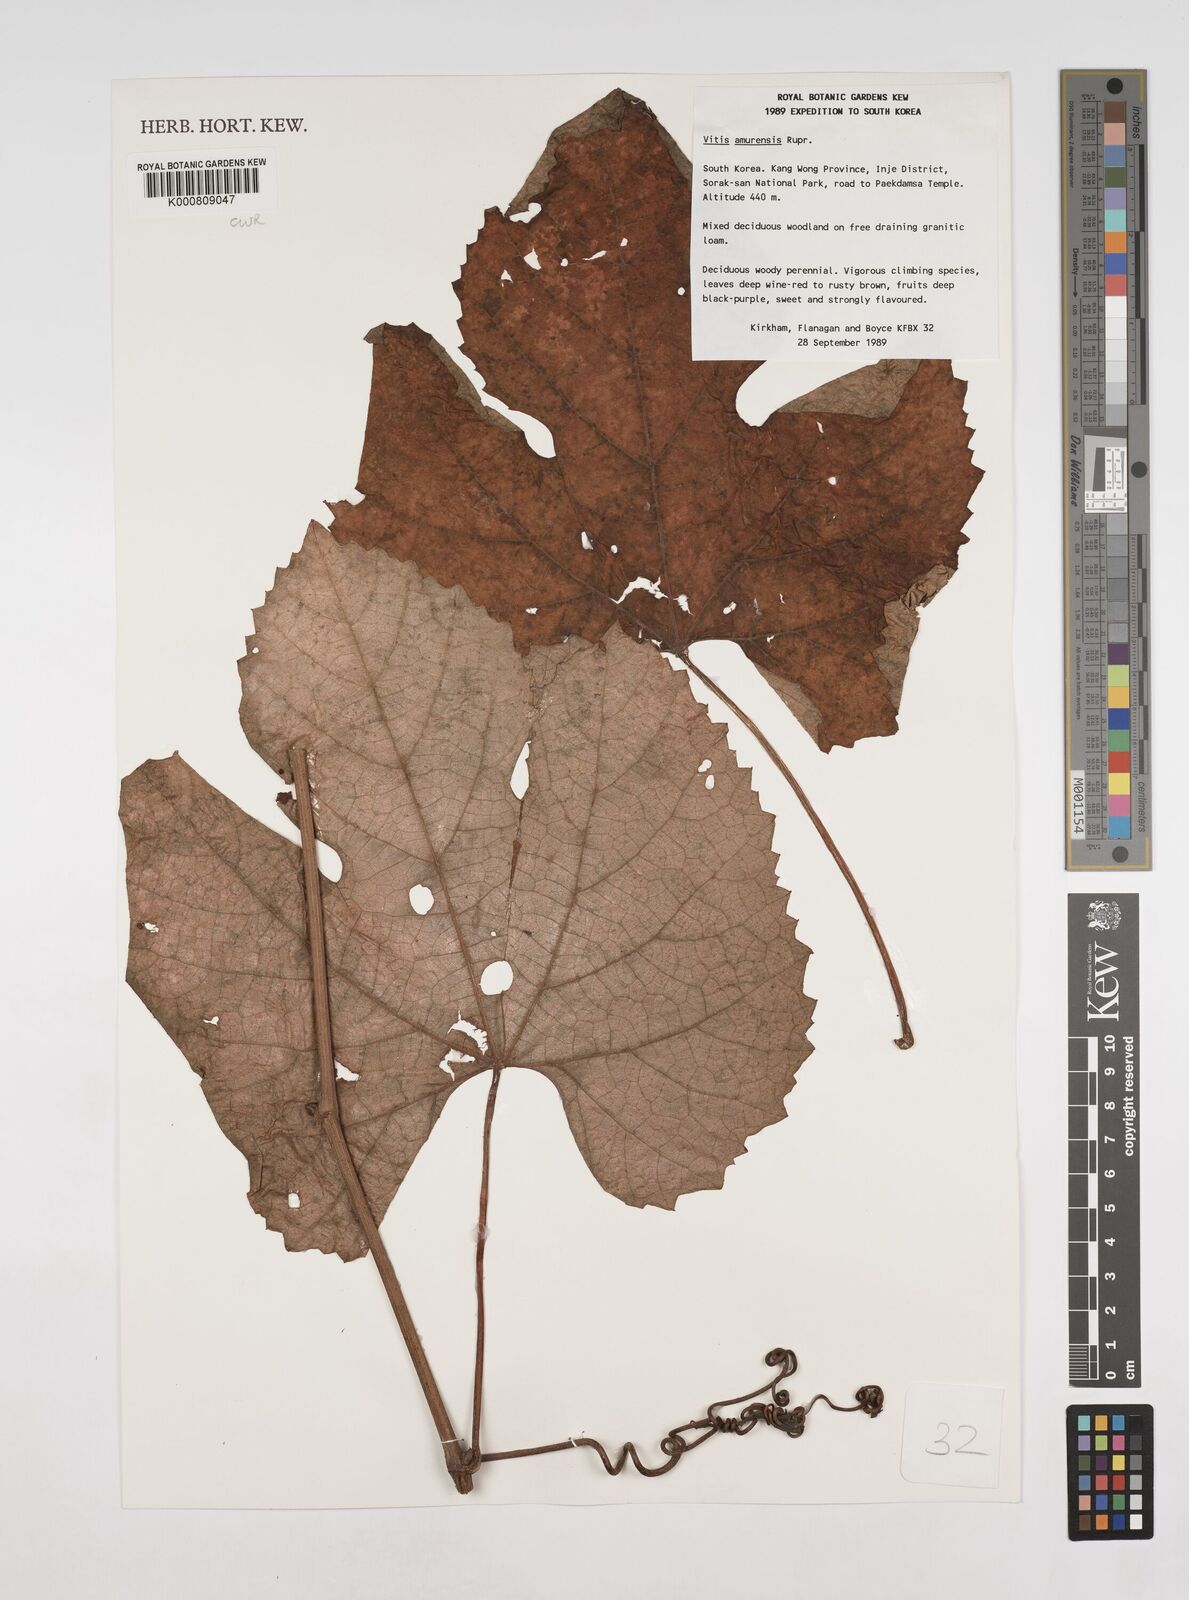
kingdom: Plantae
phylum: Tracheophyta
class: Magnoliopsida
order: Vitales
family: Vitaceae
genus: Vitis
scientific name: Vitis amurensis
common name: Amur grape
